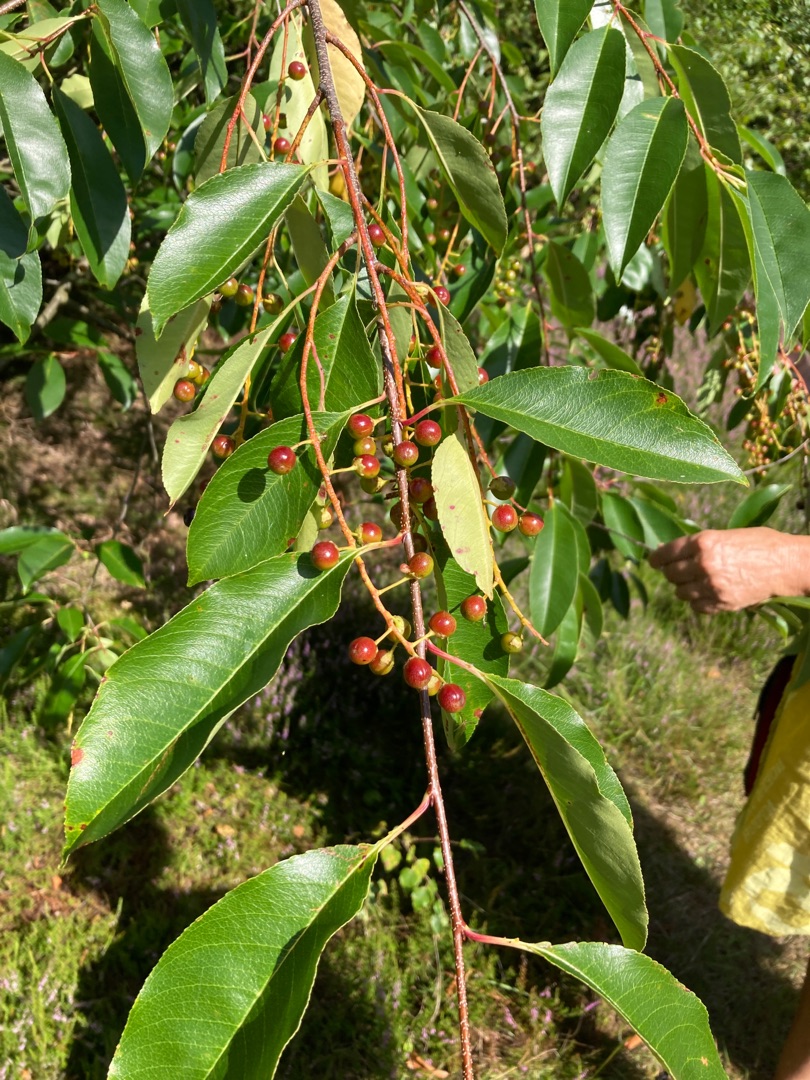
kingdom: Plantae
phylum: Tracheophyta
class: Magnoliopsida
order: Rosales
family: Rosaceae
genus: Prunus
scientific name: Prunus serotina
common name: Glansbladet hæg
